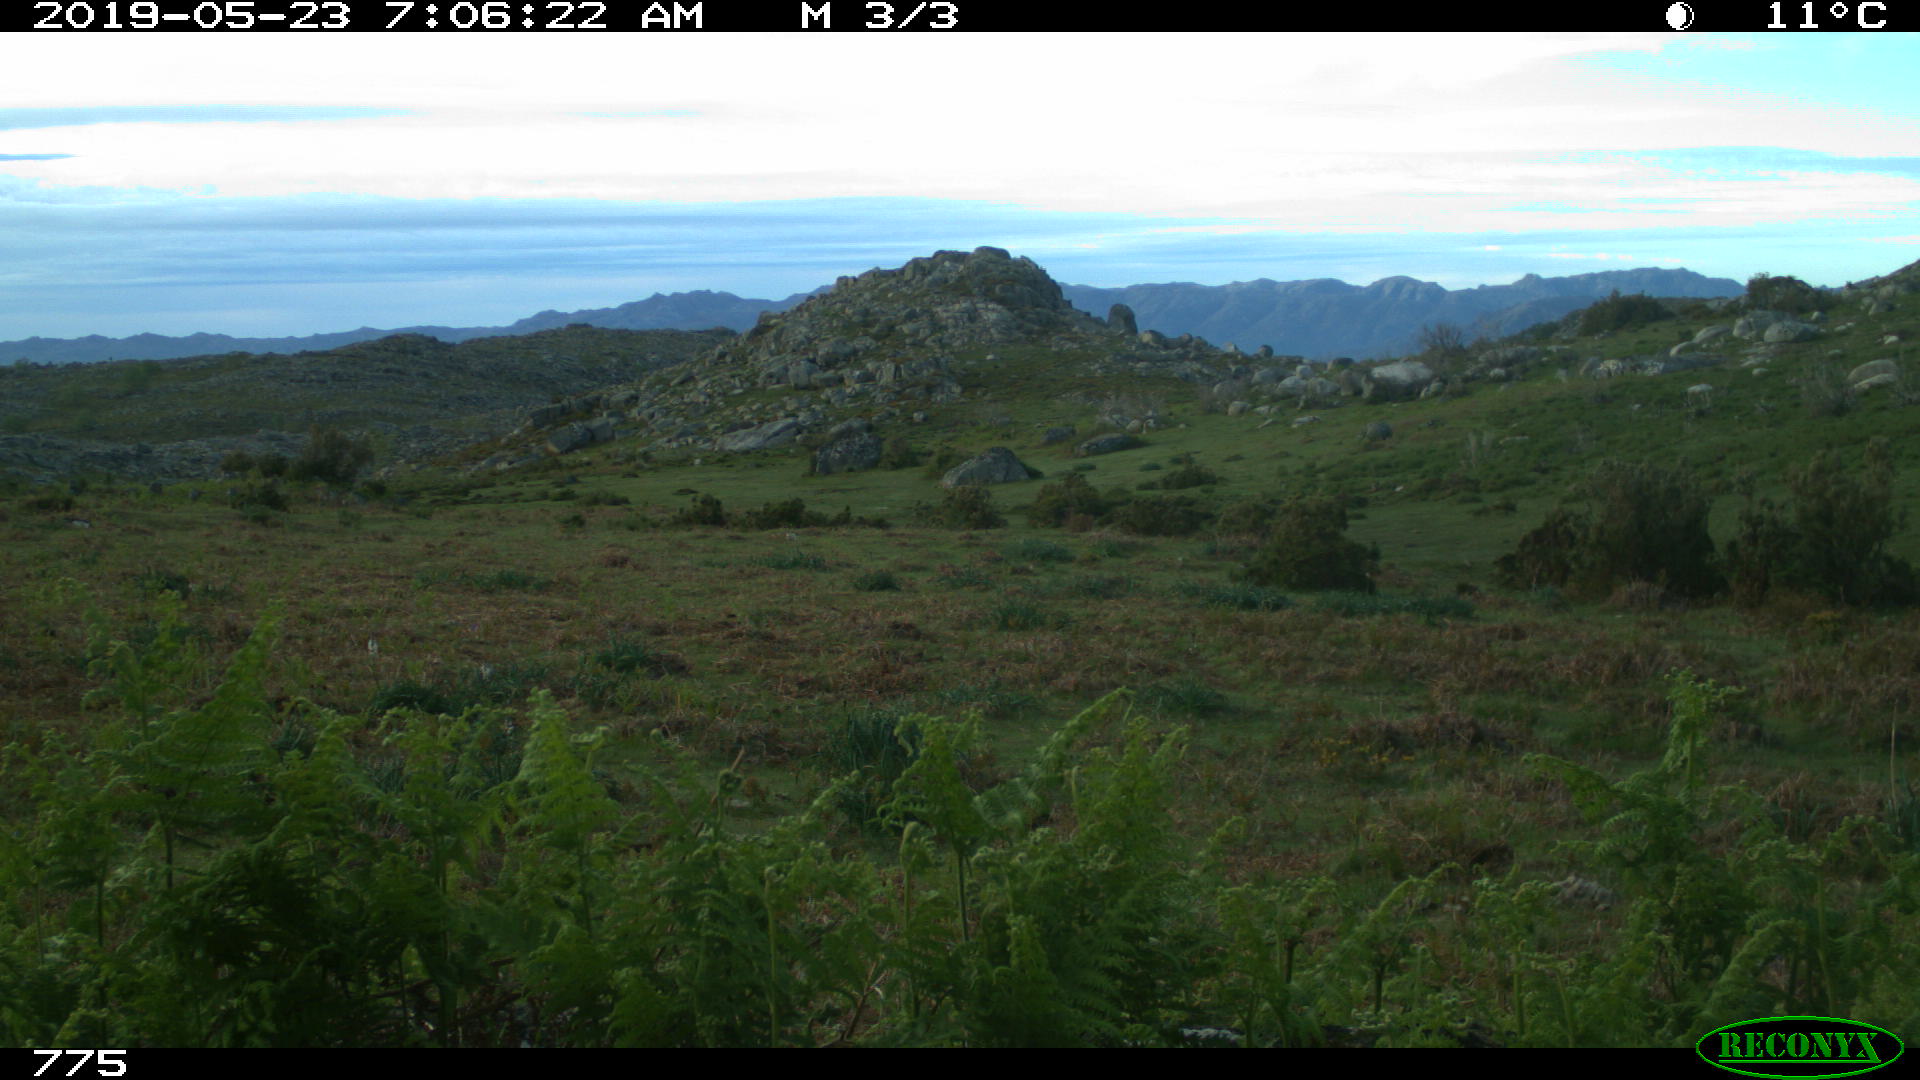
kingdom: Animalia
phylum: Chordata
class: Mammalia
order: Perissodactyla
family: Equidae
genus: Equus
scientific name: Equus caballus
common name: Horse
